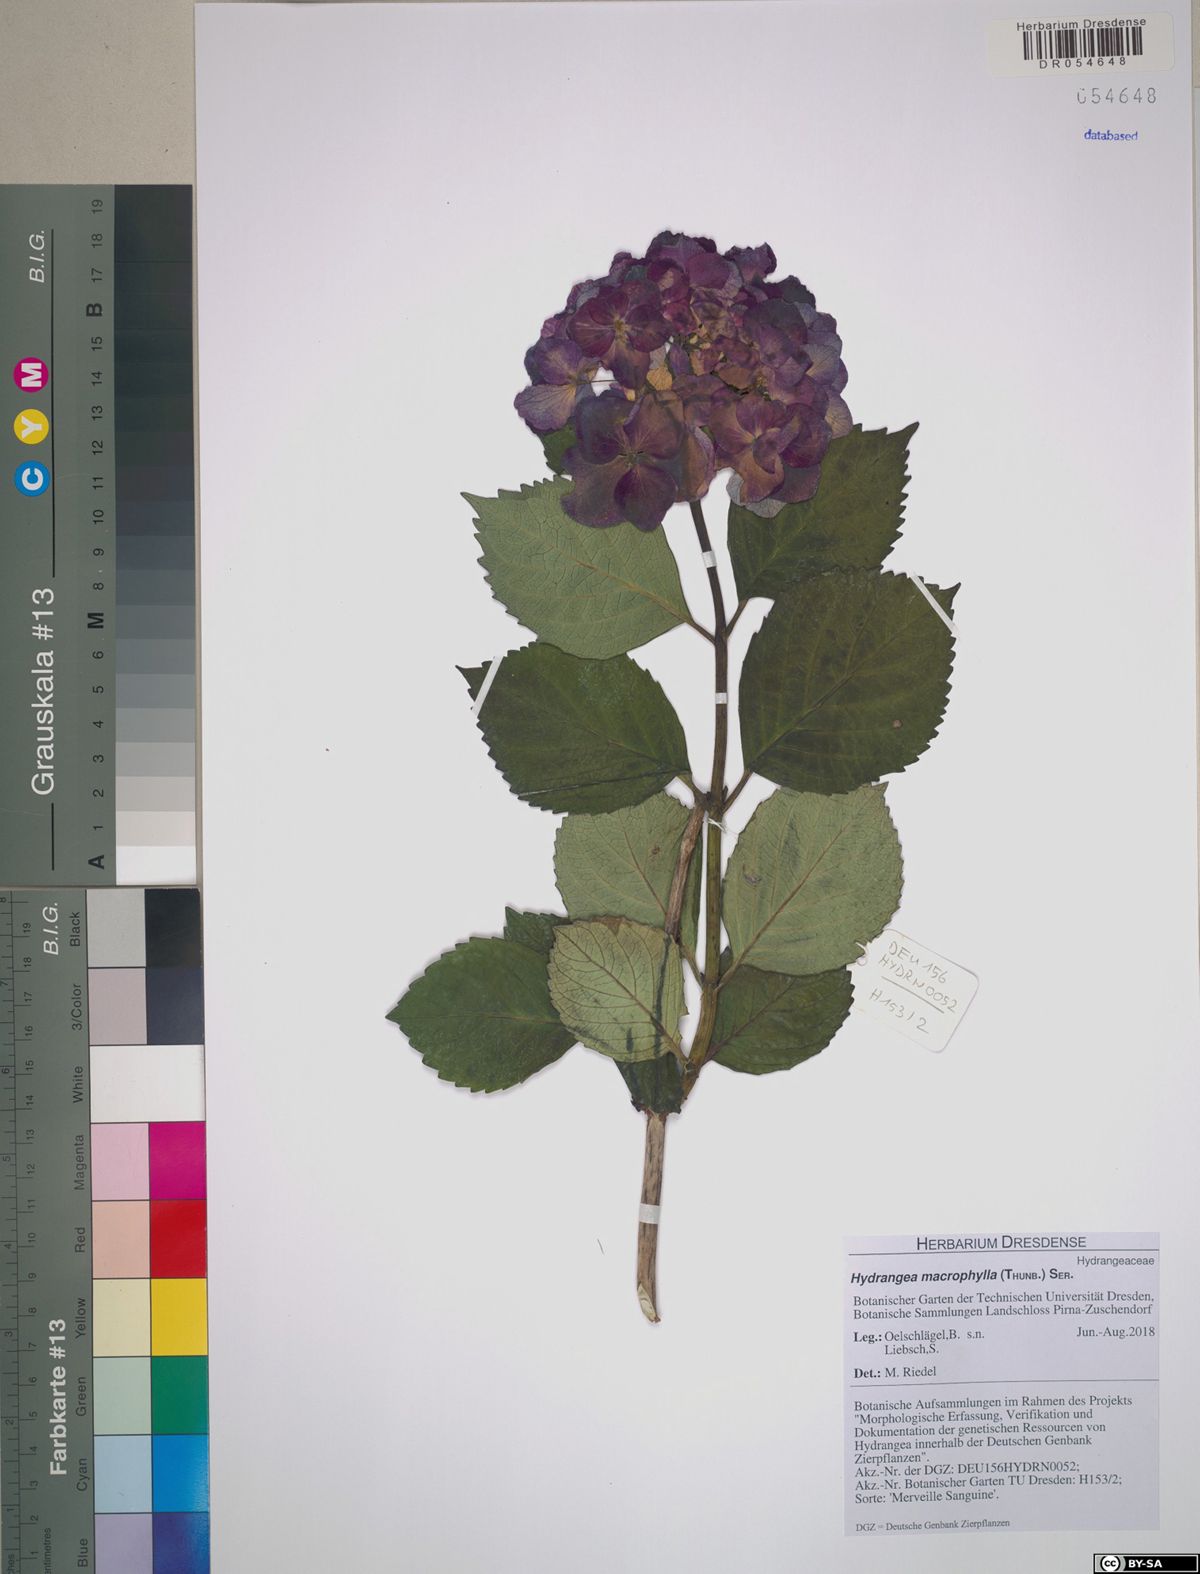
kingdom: Plantae
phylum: Tracheophyta
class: Magnoliopsida
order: Cornales
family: Hydrangeaceae
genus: Hydrangea
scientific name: Hydrangea macrophylla
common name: Hydrangea
